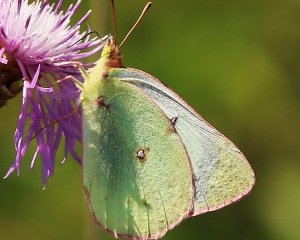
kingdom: Animalia
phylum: Arthropoda
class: Insecta
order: Lepidoptera
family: Pieridae
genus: Colias
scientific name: Colias philodice
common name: Clouded Sulphur
